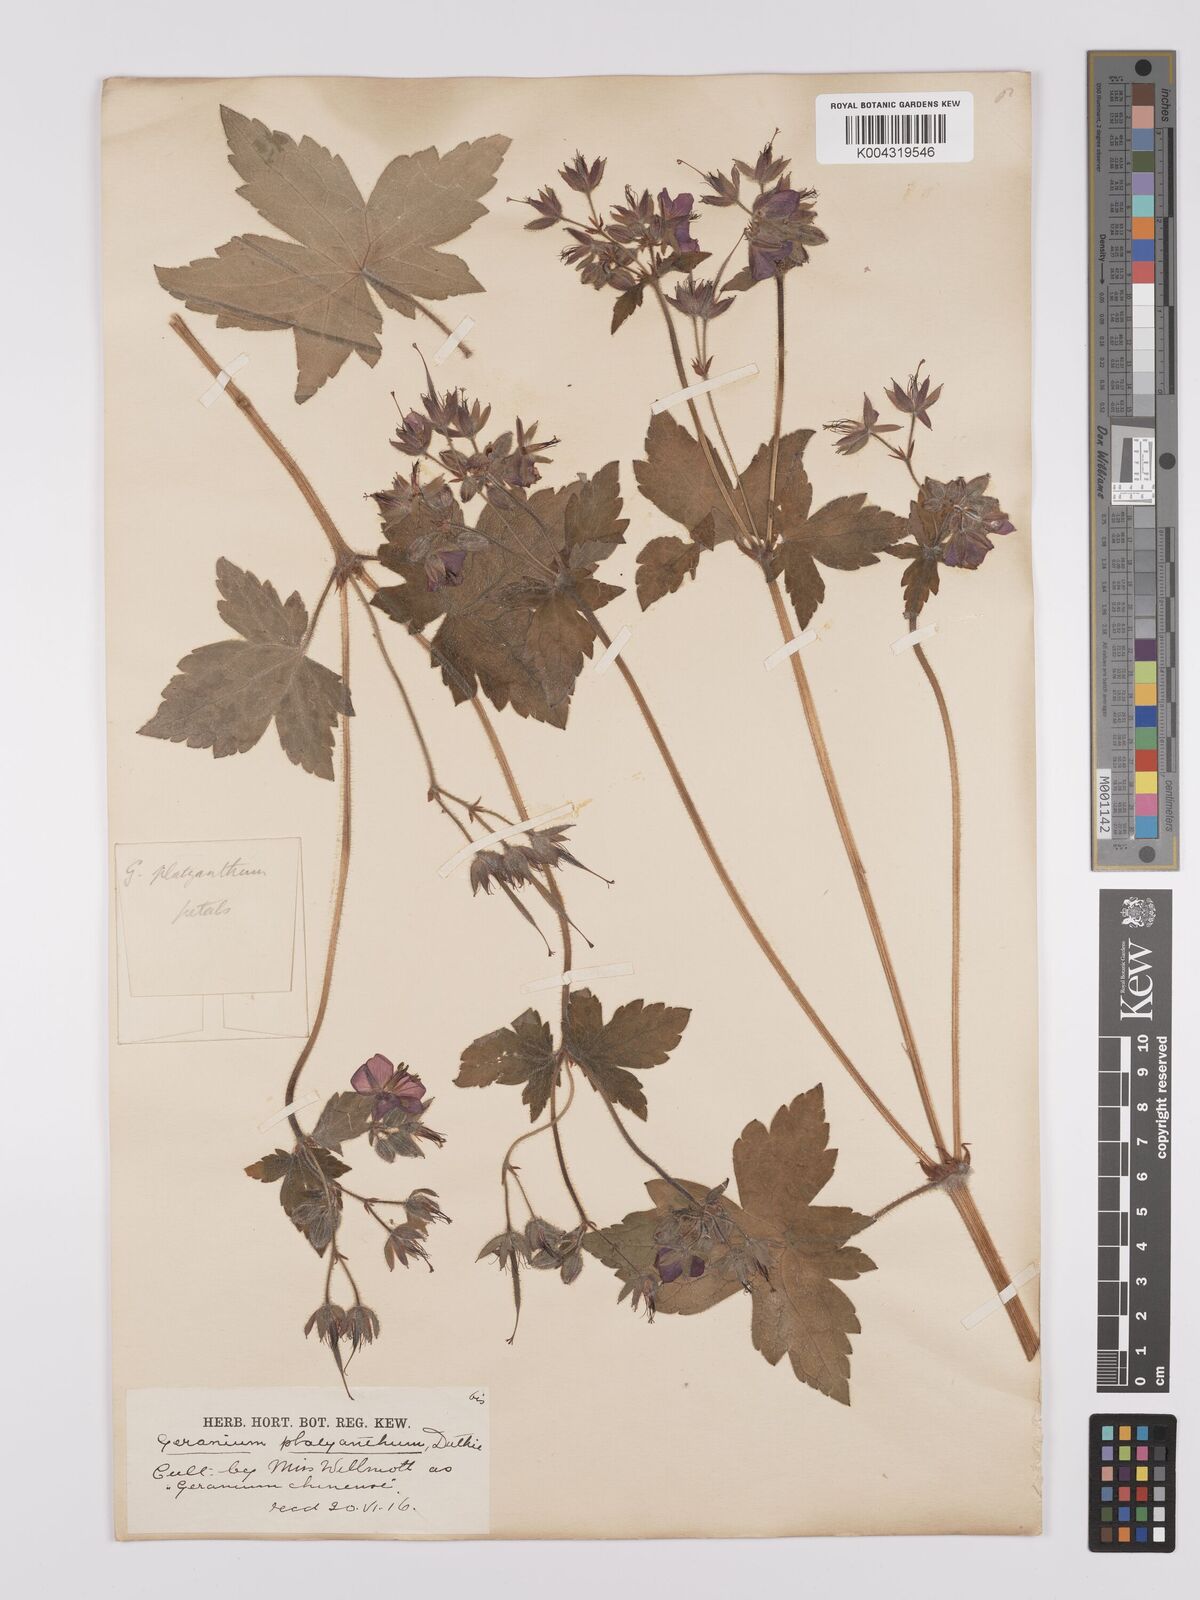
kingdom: Plantae
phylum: Tracheophyta
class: Magnoliopsida
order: Geraniales
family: Geraniaceae
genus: Geranium
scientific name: Geranium platyanthum
